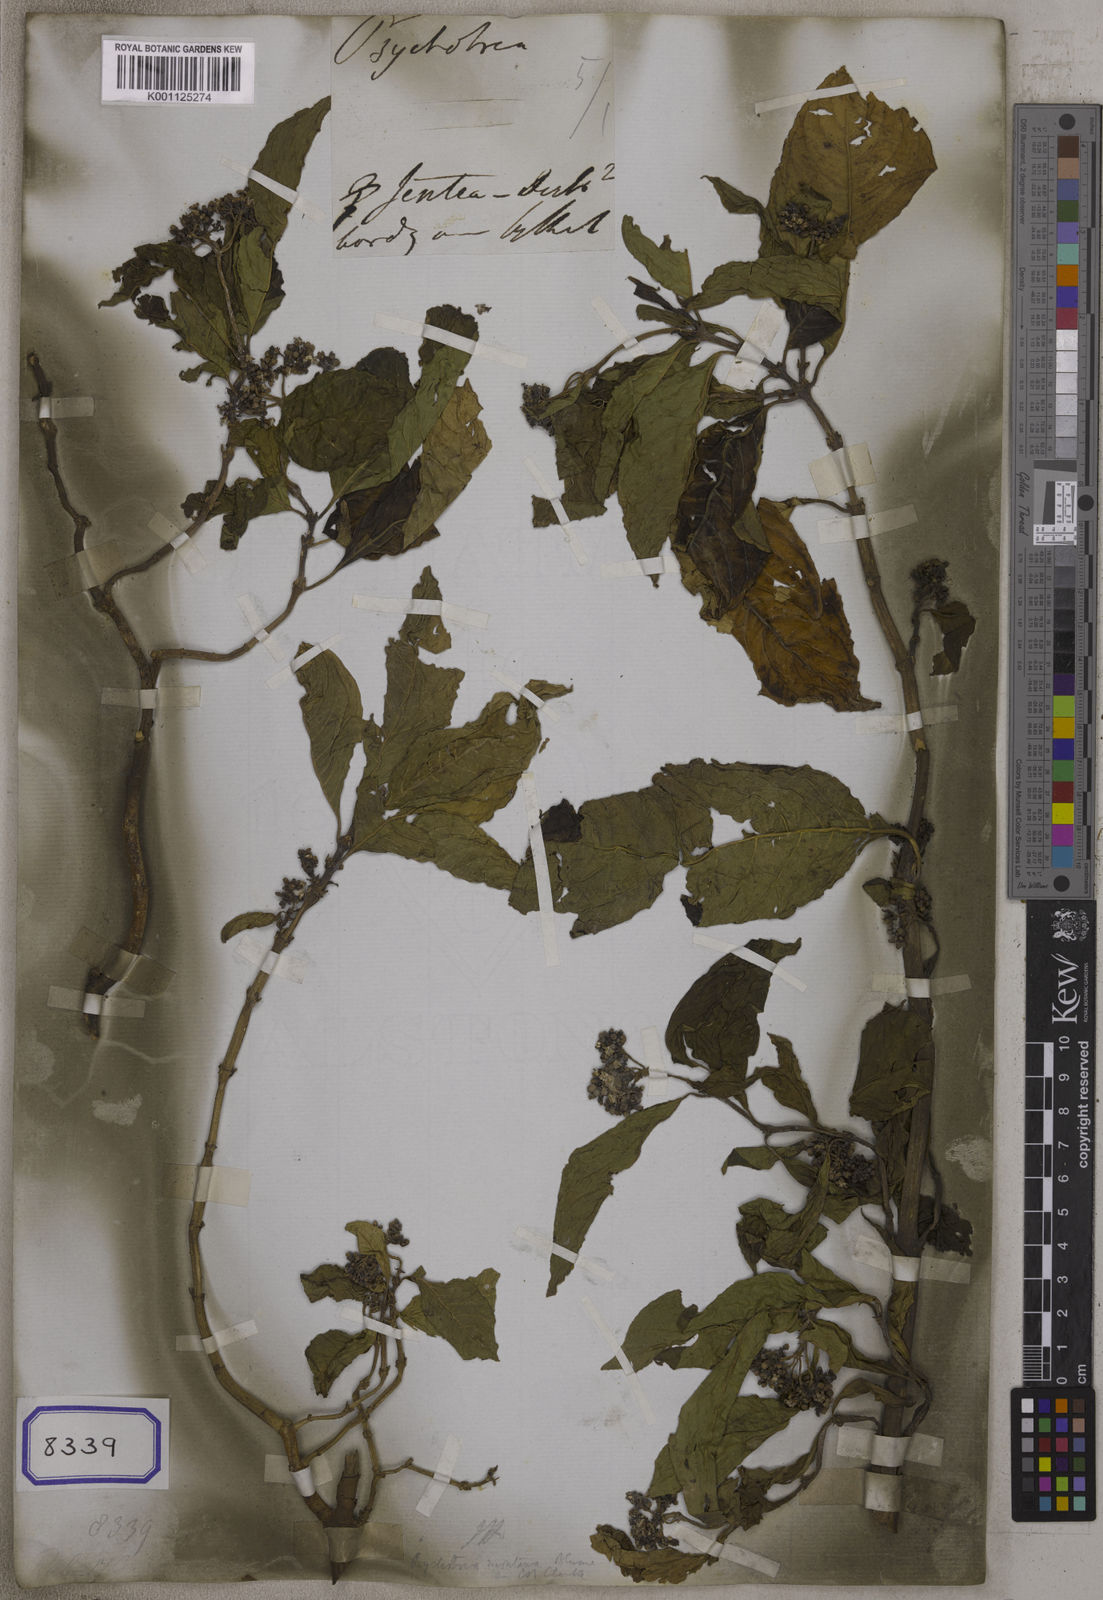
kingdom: Plantae
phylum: Tracheophyta
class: Magnoliopsida
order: Gentianales
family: Rubiaceae
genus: Psychotria
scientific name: Psychotria
